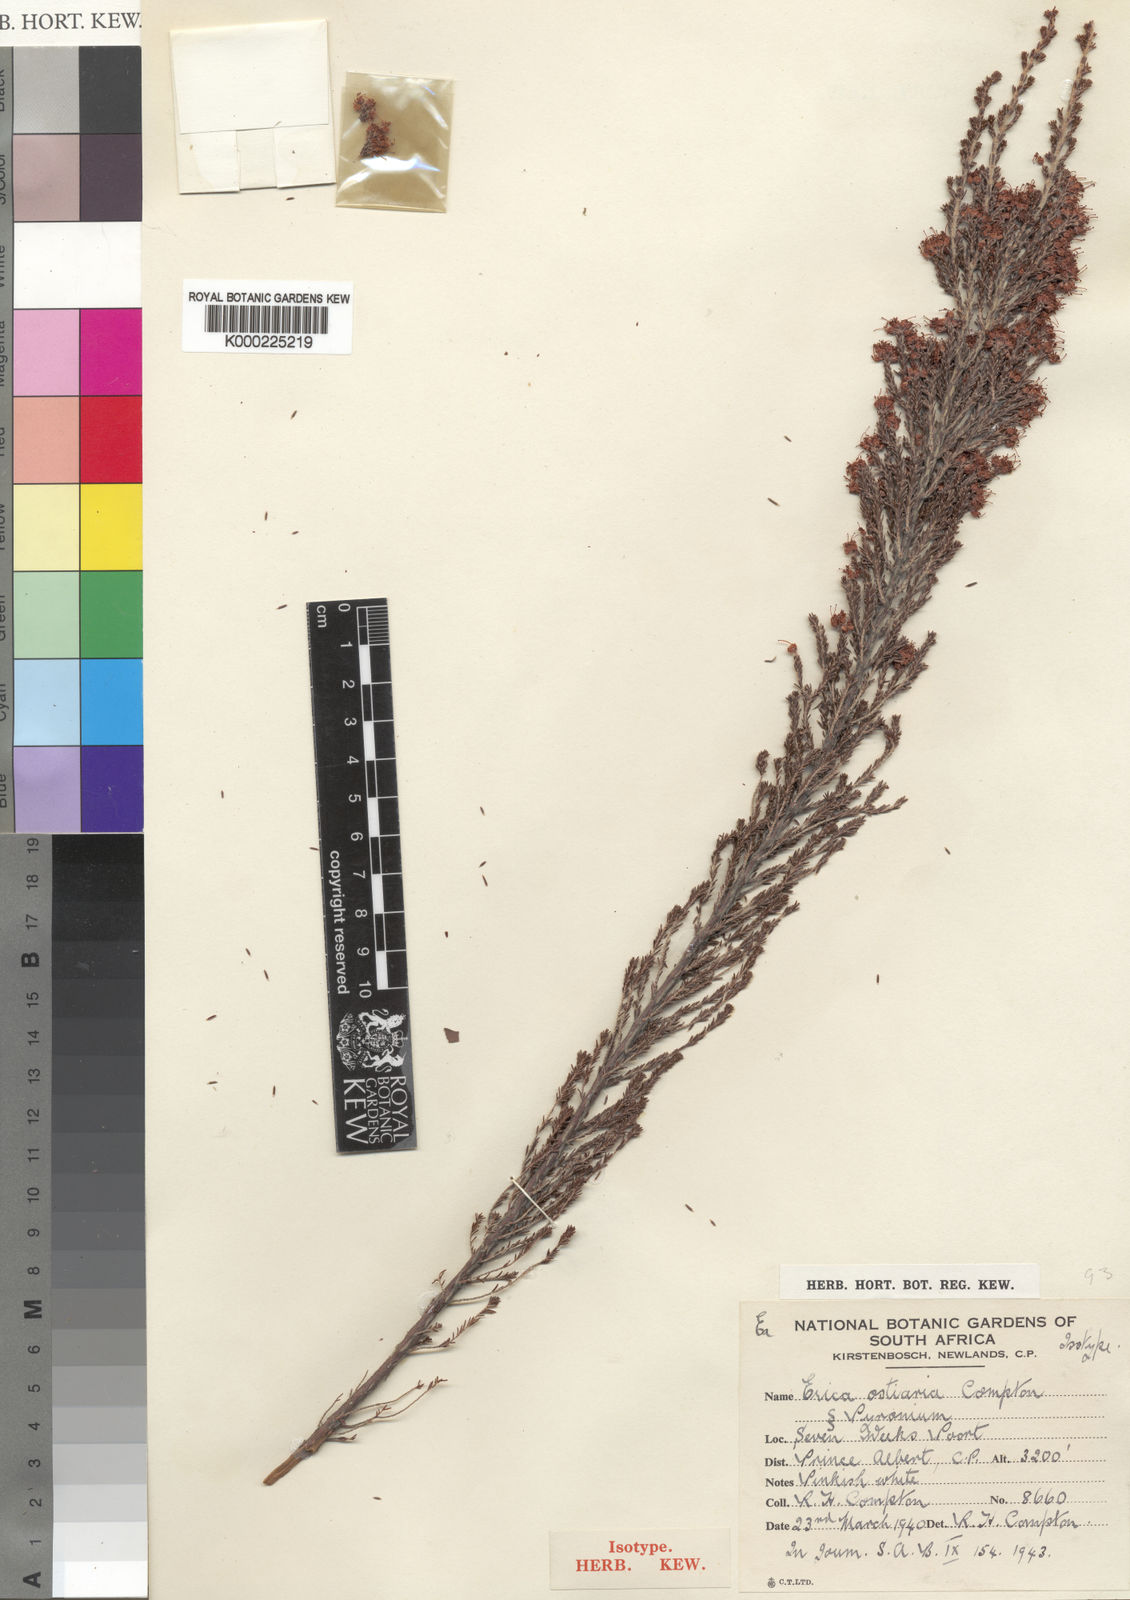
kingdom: Plantae
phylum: Tracheophyta
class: Magnoliopsida
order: Ericales
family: Ericaceae
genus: Erica
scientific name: Erica
